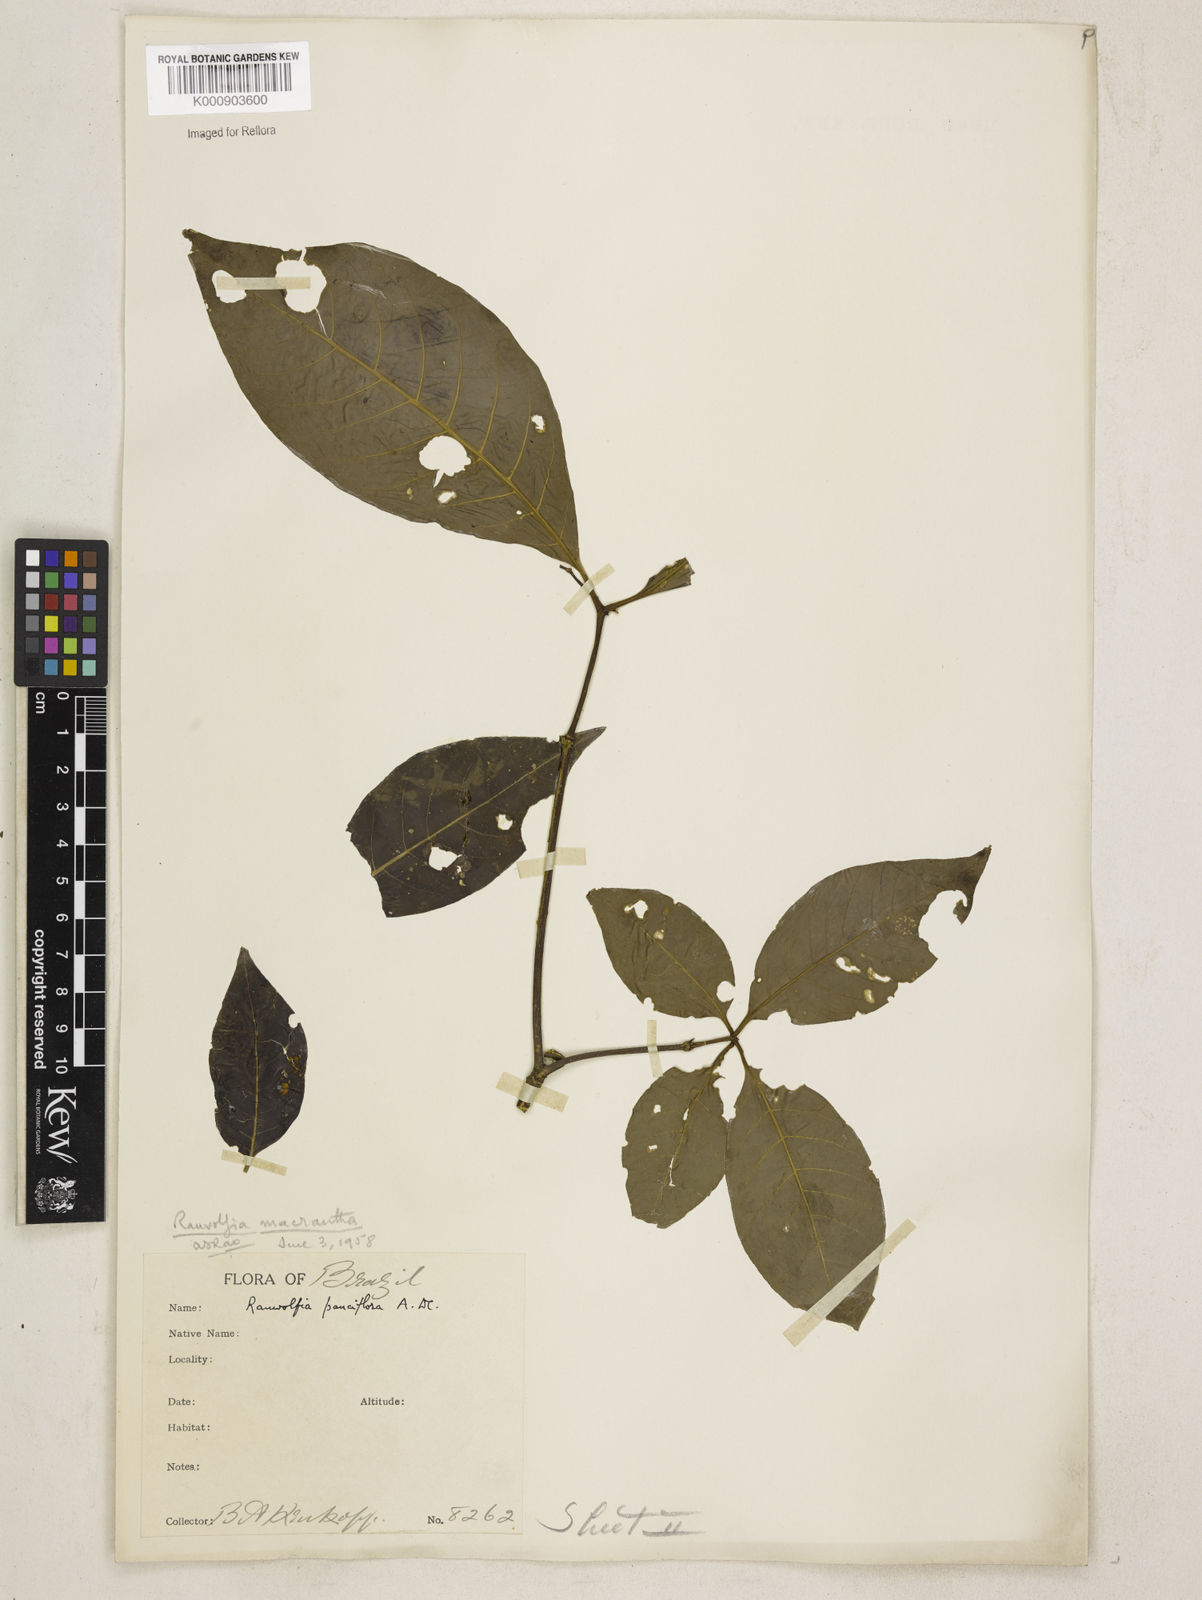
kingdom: Plantae
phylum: Tracheophyta
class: Magnoliopsida
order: Gentianales
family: Apocynaceae
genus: Rauvolfia
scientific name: Rauvolfia macrantha
